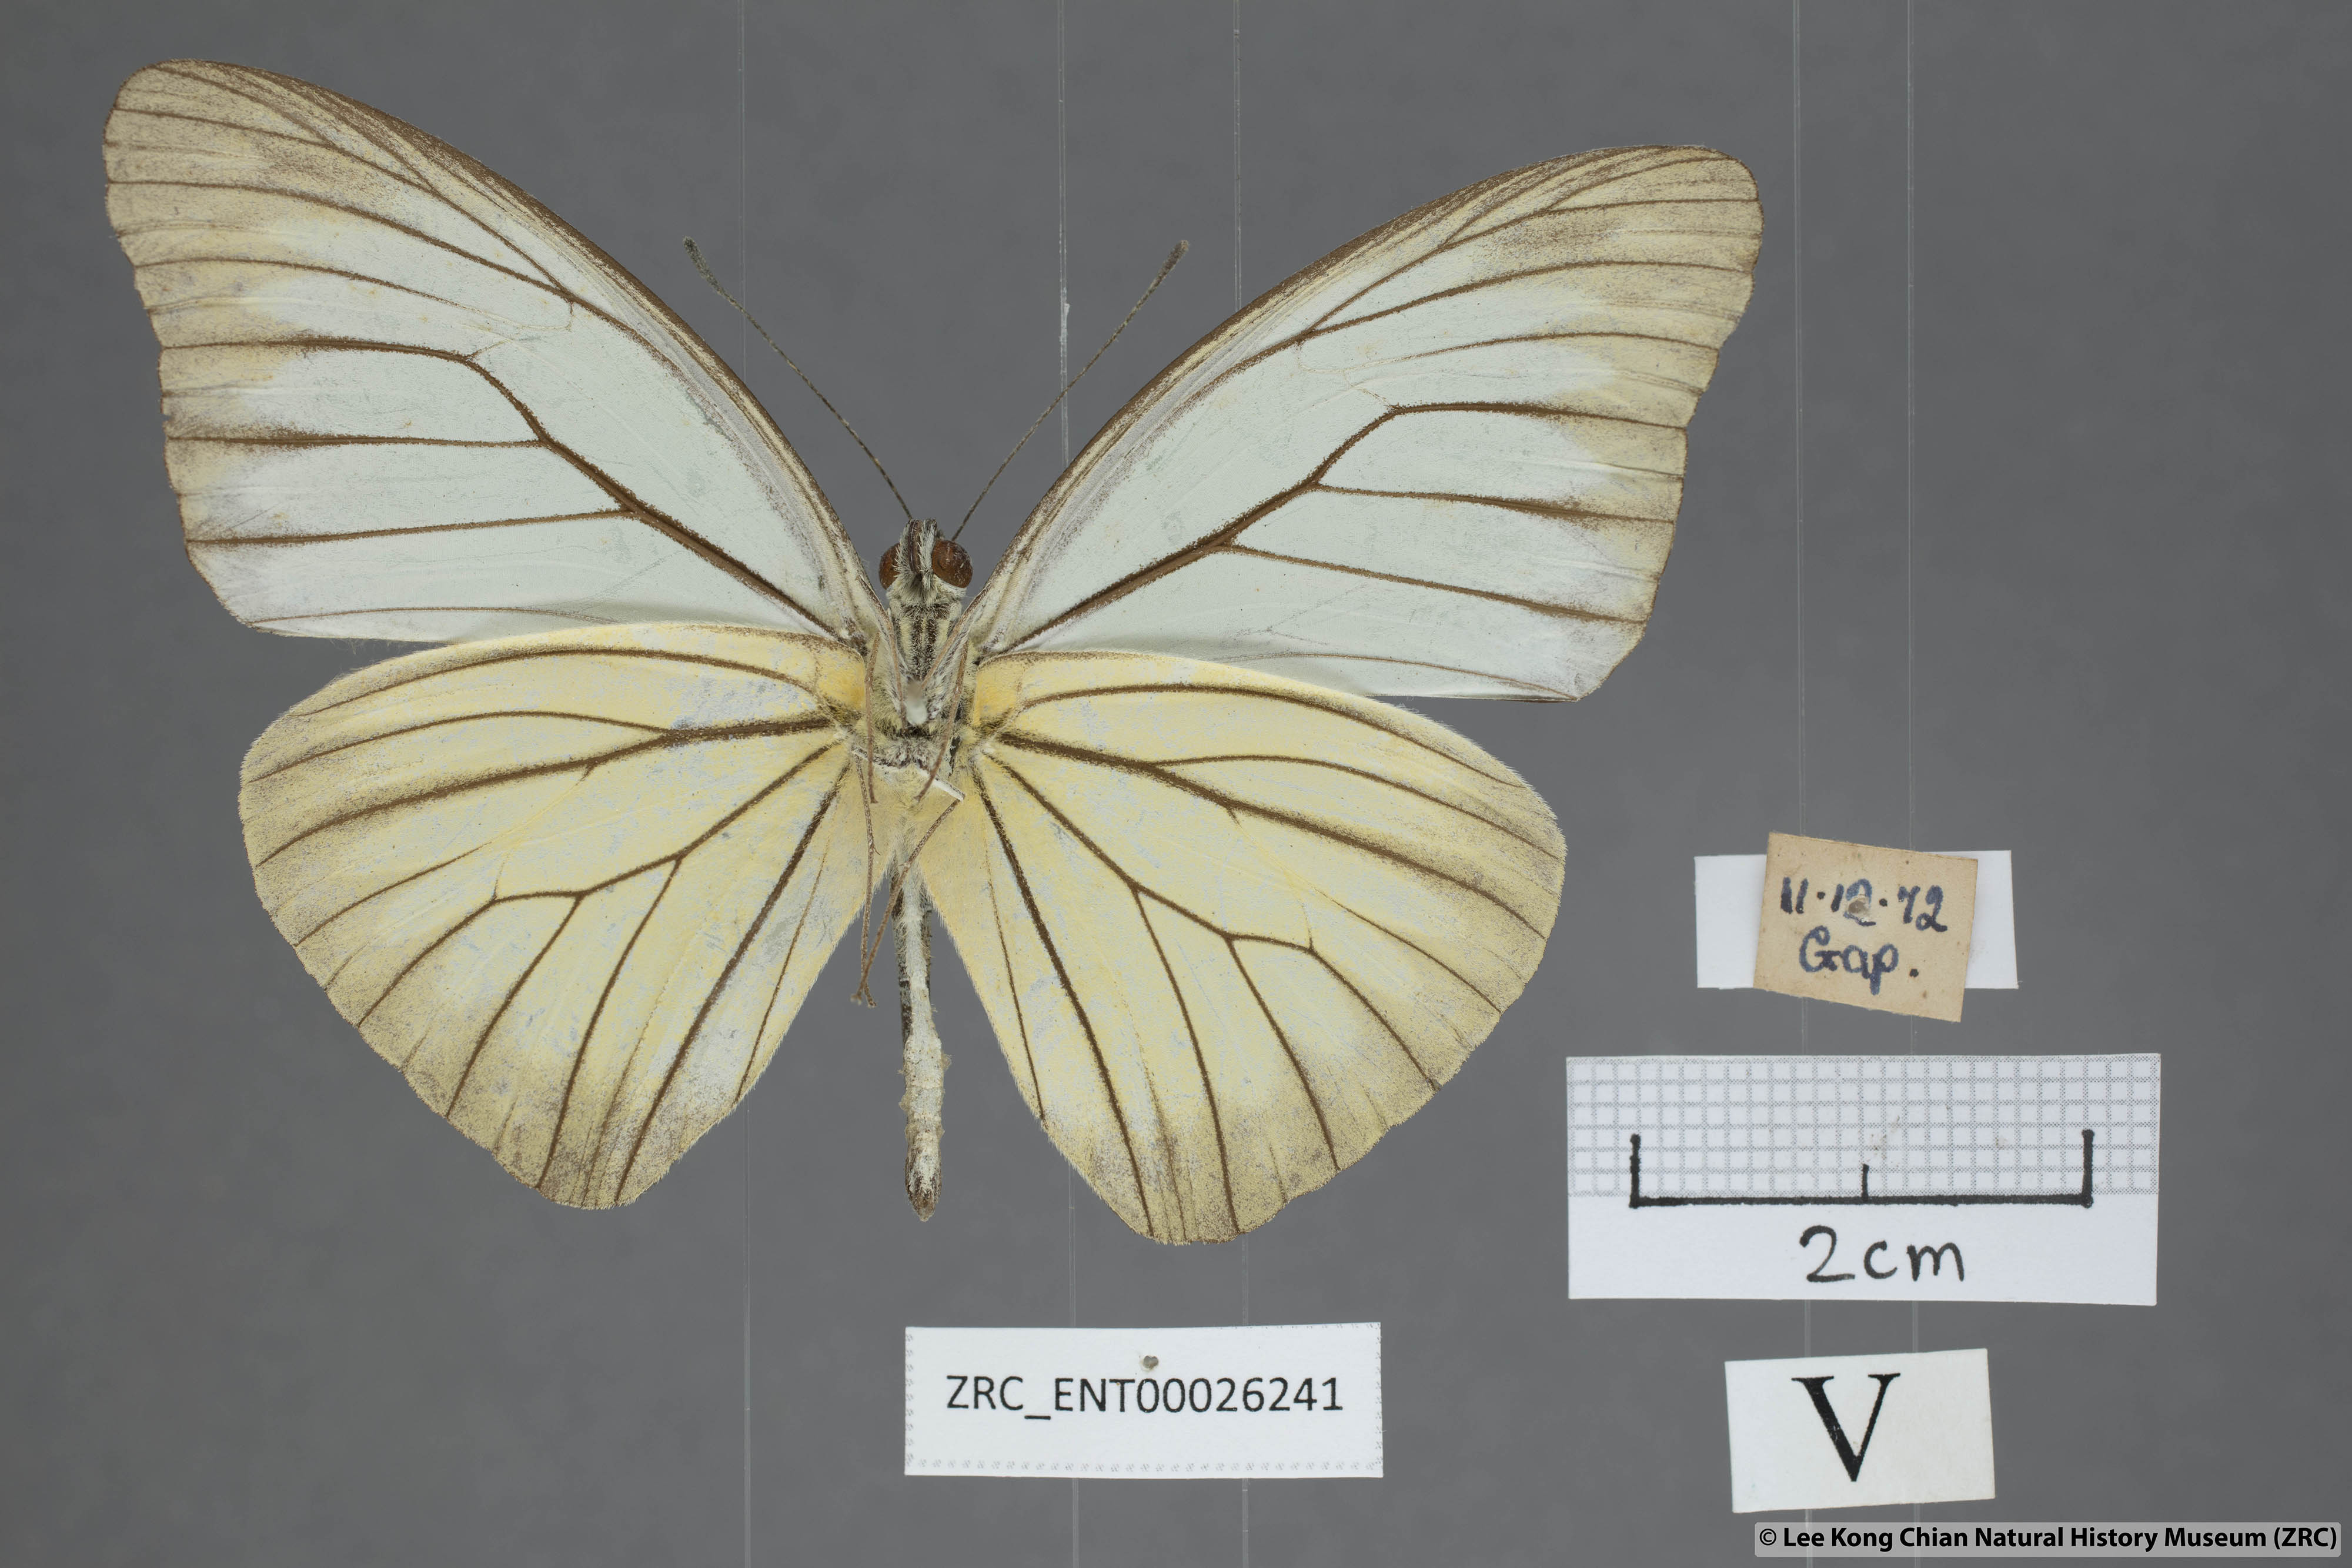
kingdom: Animalia
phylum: Arthropoda
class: Insecta
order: Lepidoptera
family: Pieridae
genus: Pareronia
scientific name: Pareronia valeria
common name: Common wanderer?
